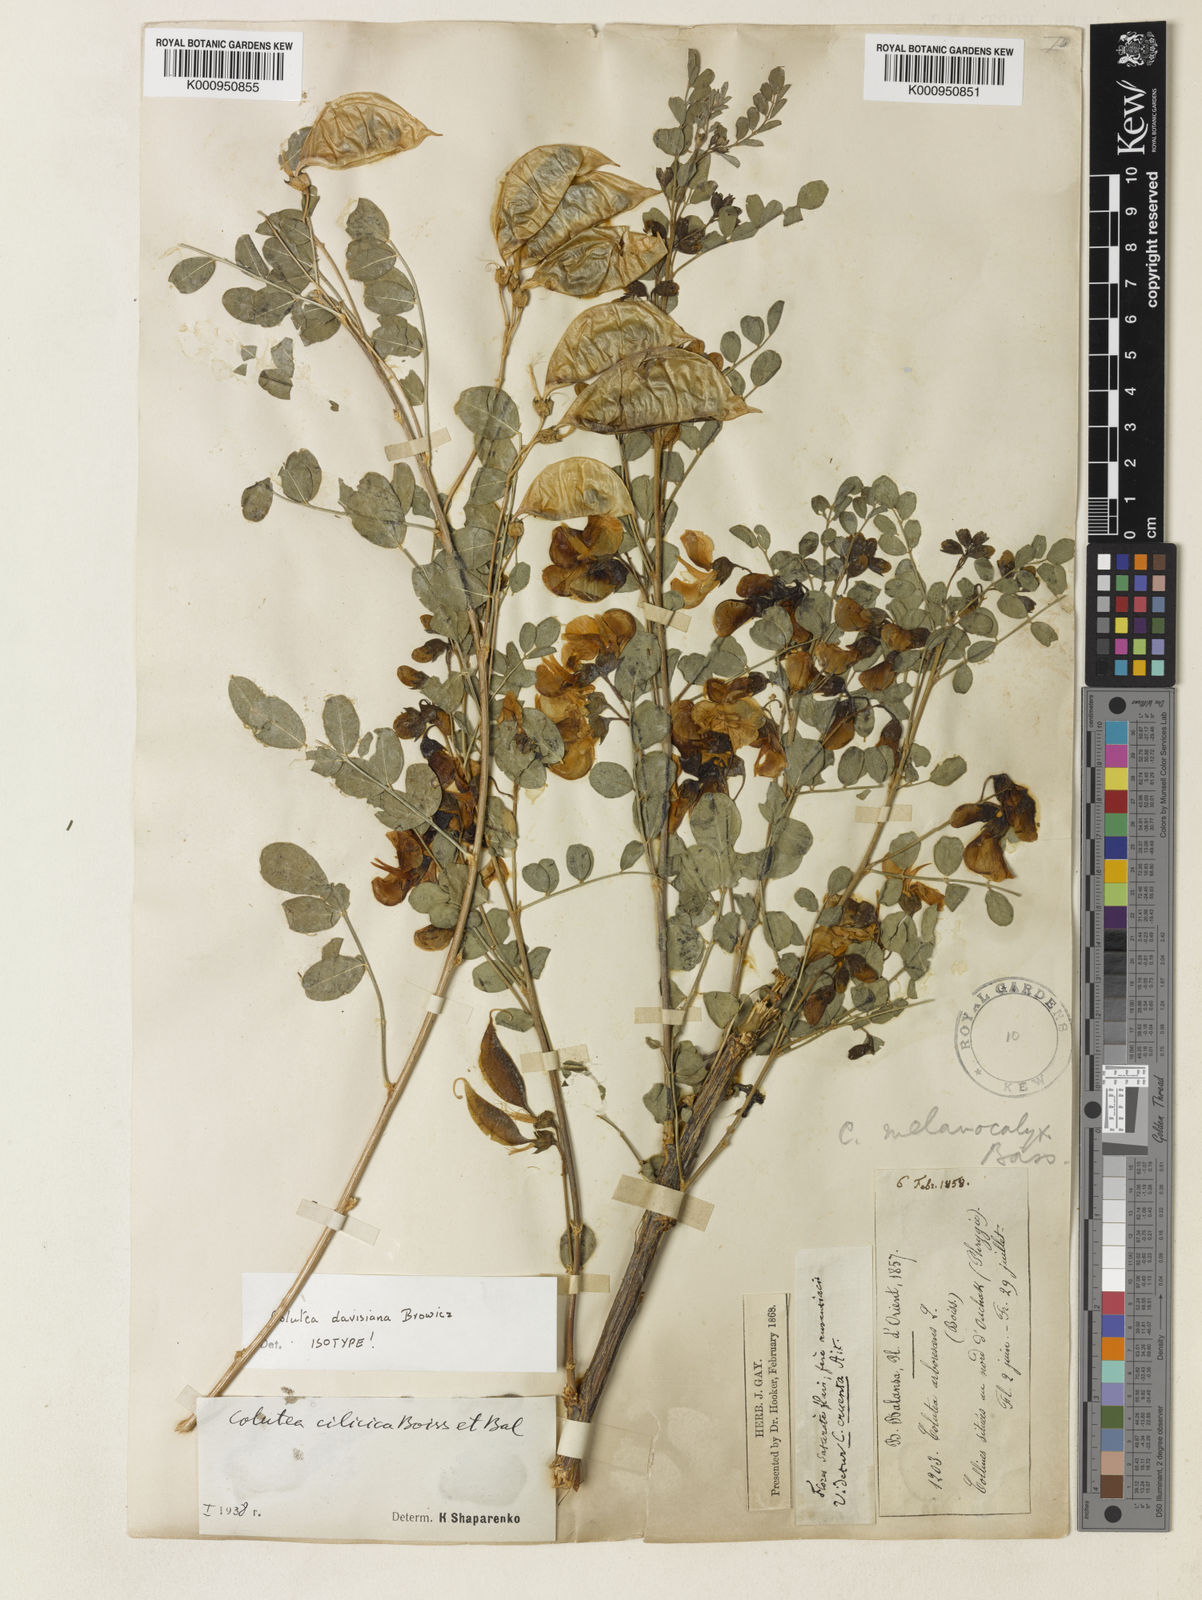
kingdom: Plantae
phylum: Tracheophyta
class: Magnoliopsida
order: Fabales
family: Fabaceae
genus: Colutea
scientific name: Colutea melanocalyx
